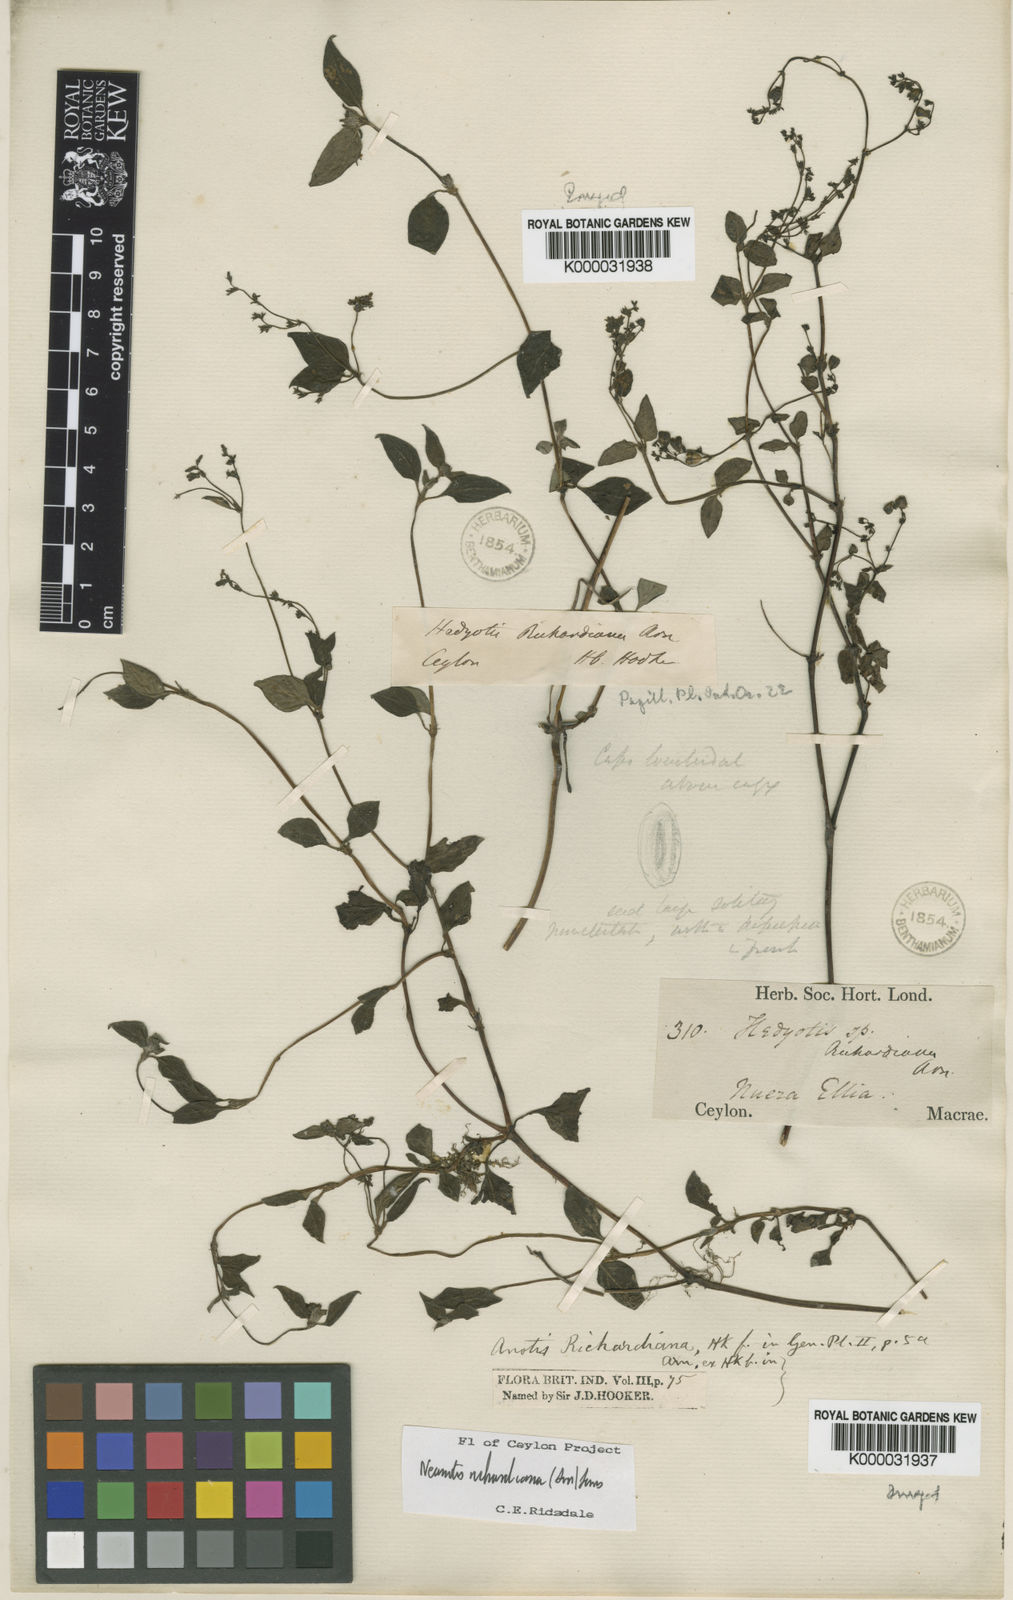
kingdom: Plantae
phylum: Tracheophyta
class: Magnoliopsida
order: Gentianales
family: Rubiaceae
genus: Neanotis
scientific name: Neanotis richardiana
